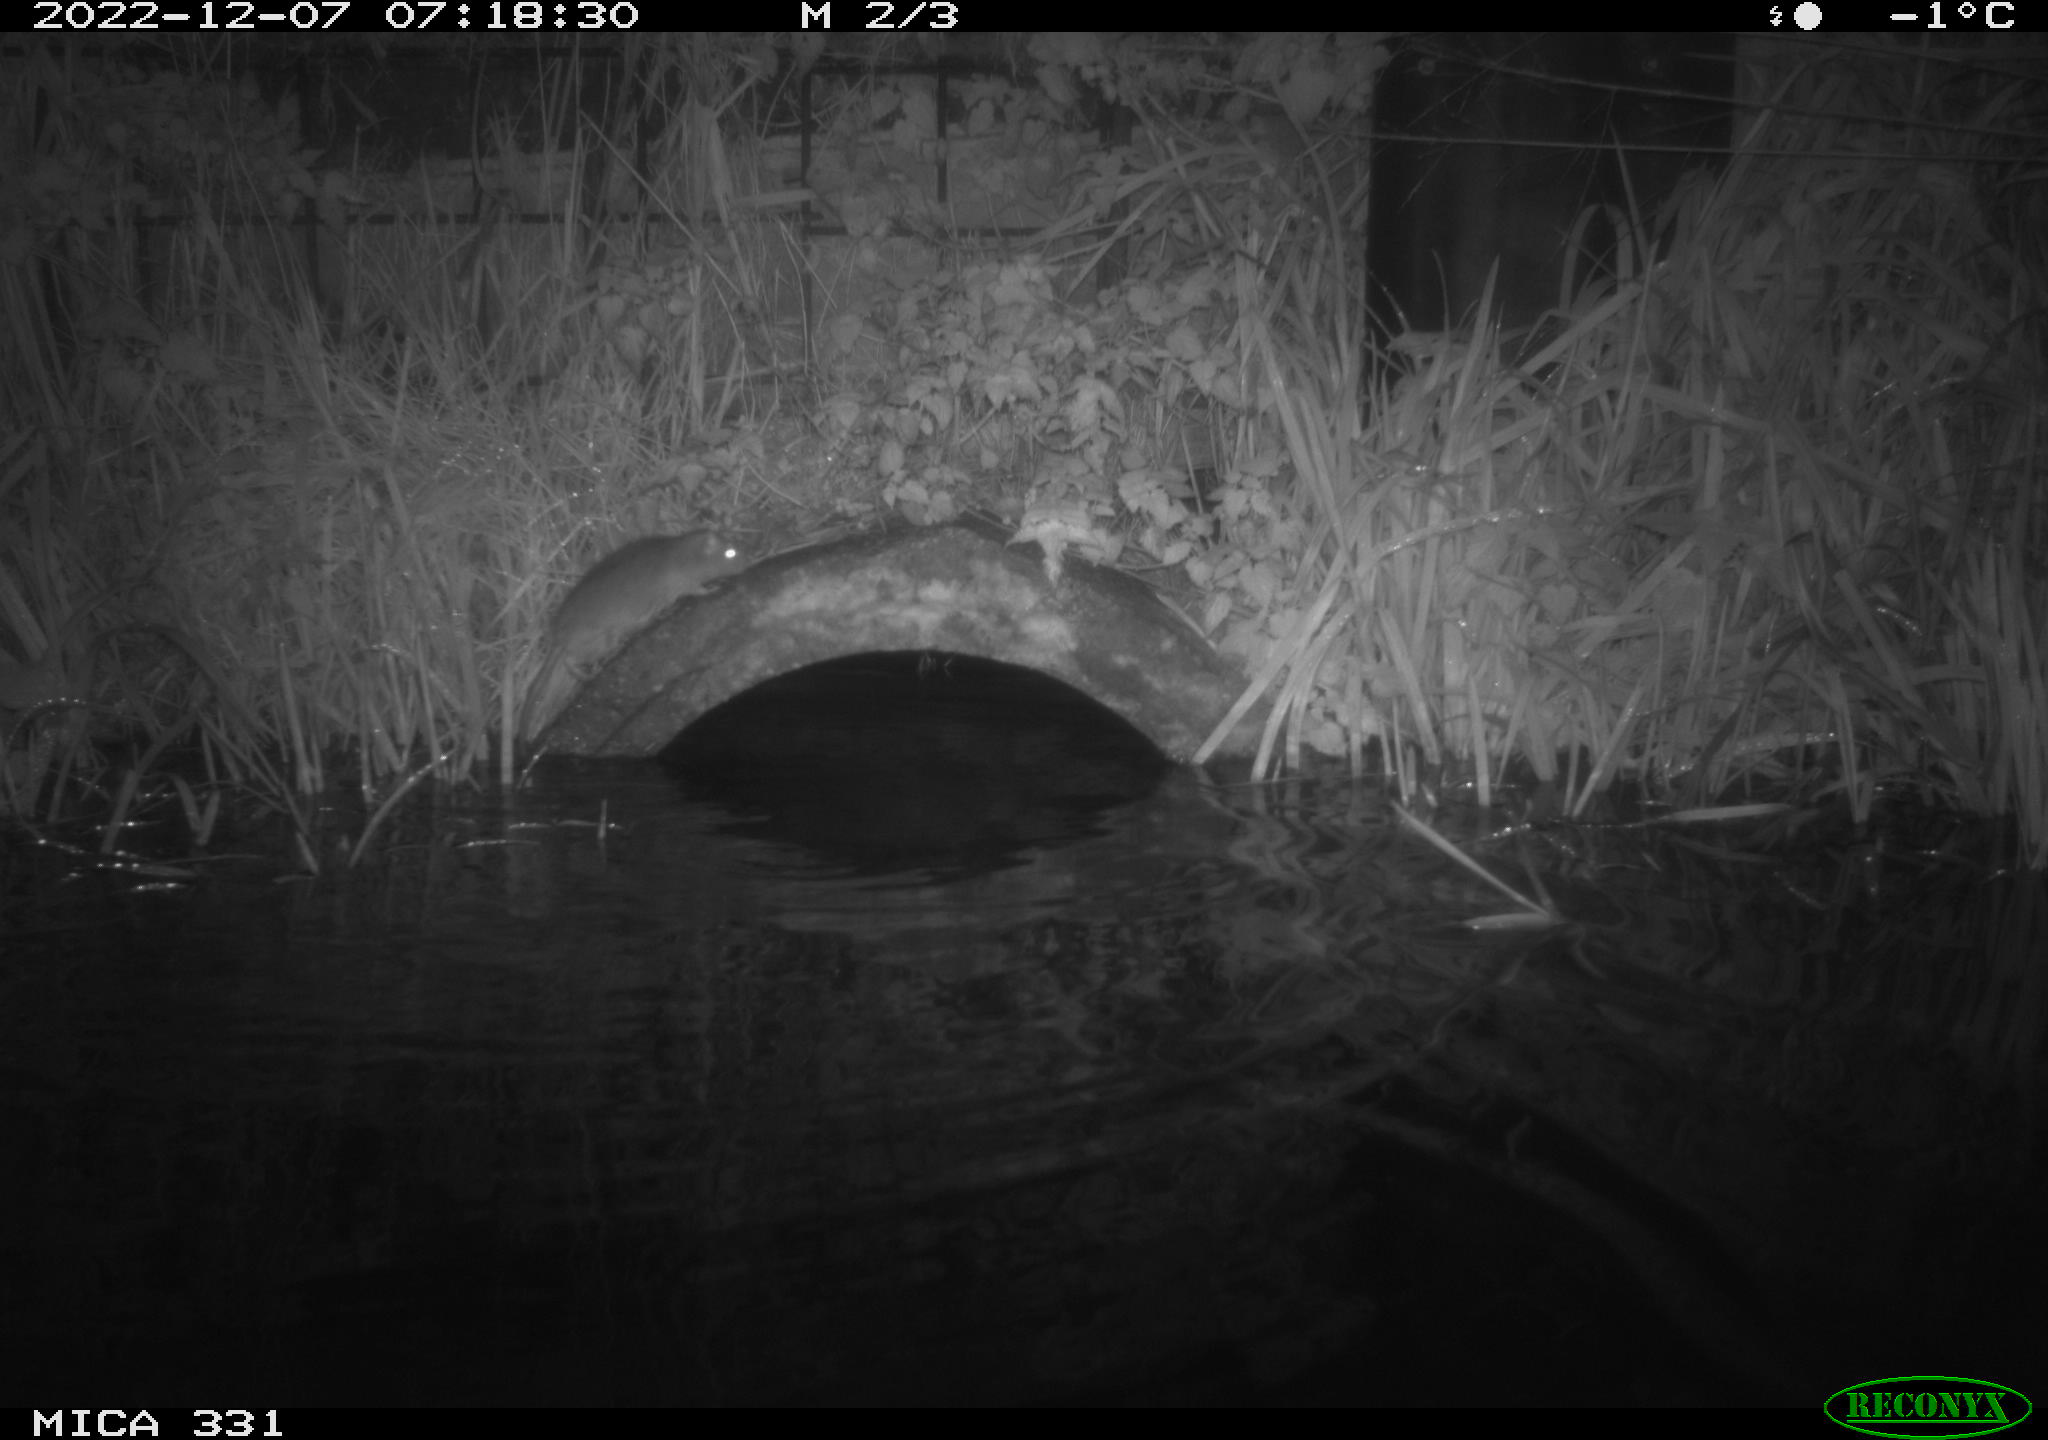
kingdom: Animalia
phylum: Chordata
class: Mammalia
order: Rodentia
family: Muridae
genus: Rattus
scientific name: Rattus norvegicus
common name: Brown rat
